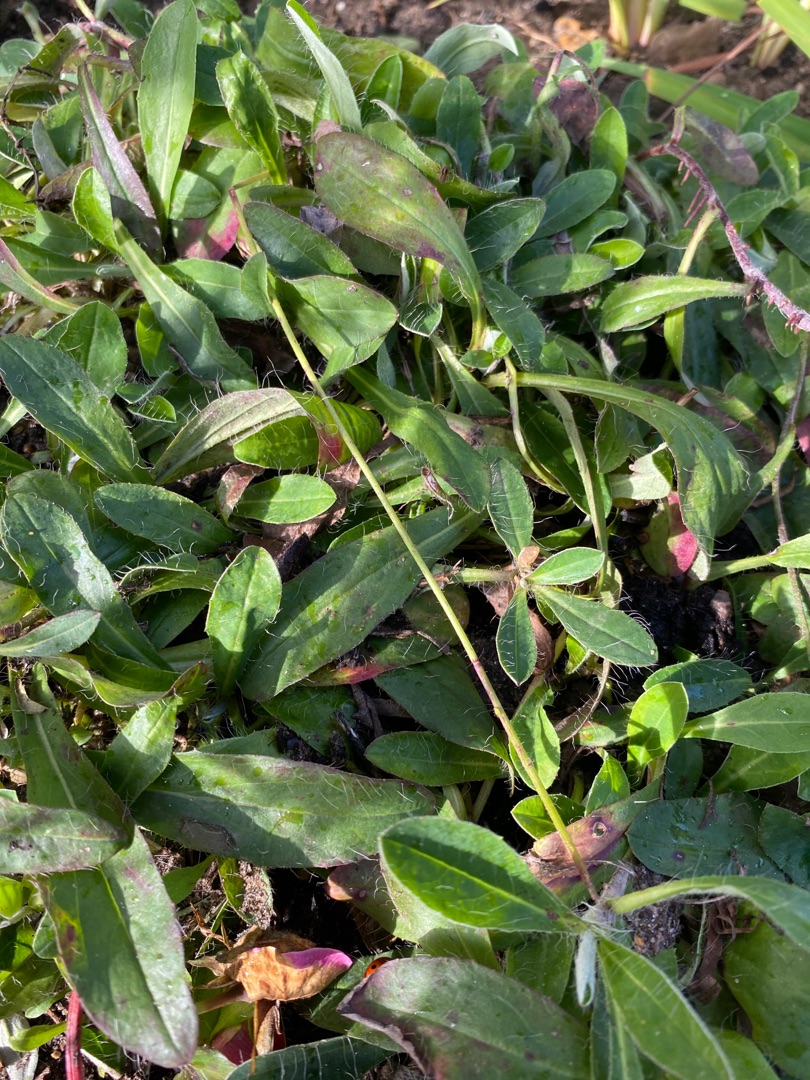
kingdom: Plantae
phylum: Tracheophyta
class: Magnoliopsida
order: Asterales
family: Asteraceae
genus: Pilosella
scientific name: Pilosella officinarum
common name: Håret høgeurt
